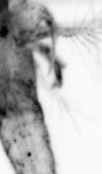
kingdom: Animalia
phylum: Arthropoda
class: Copepoda
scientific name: Copepoda
